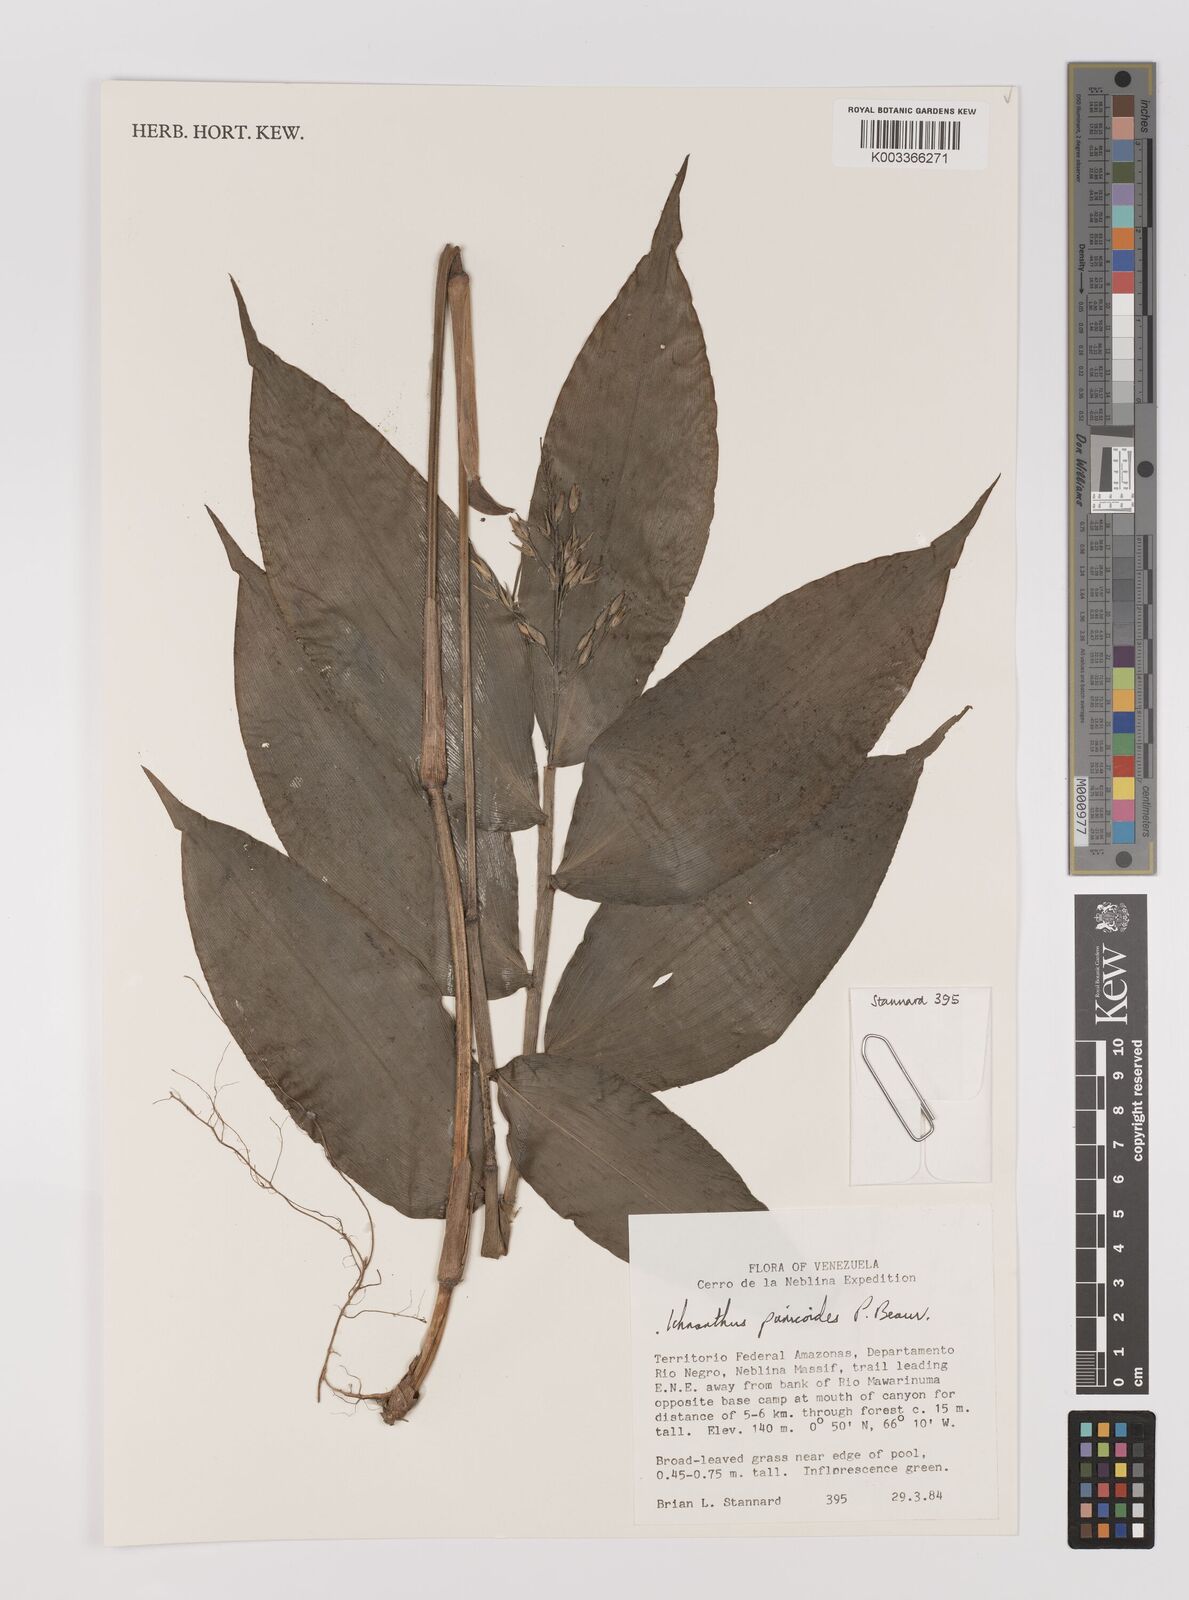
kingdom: Plantae
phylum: Tracheophyta
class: Liliopsida
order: Poales
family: Poaceae
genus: Ichnanthus
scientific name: Ichnanthus panicoides
